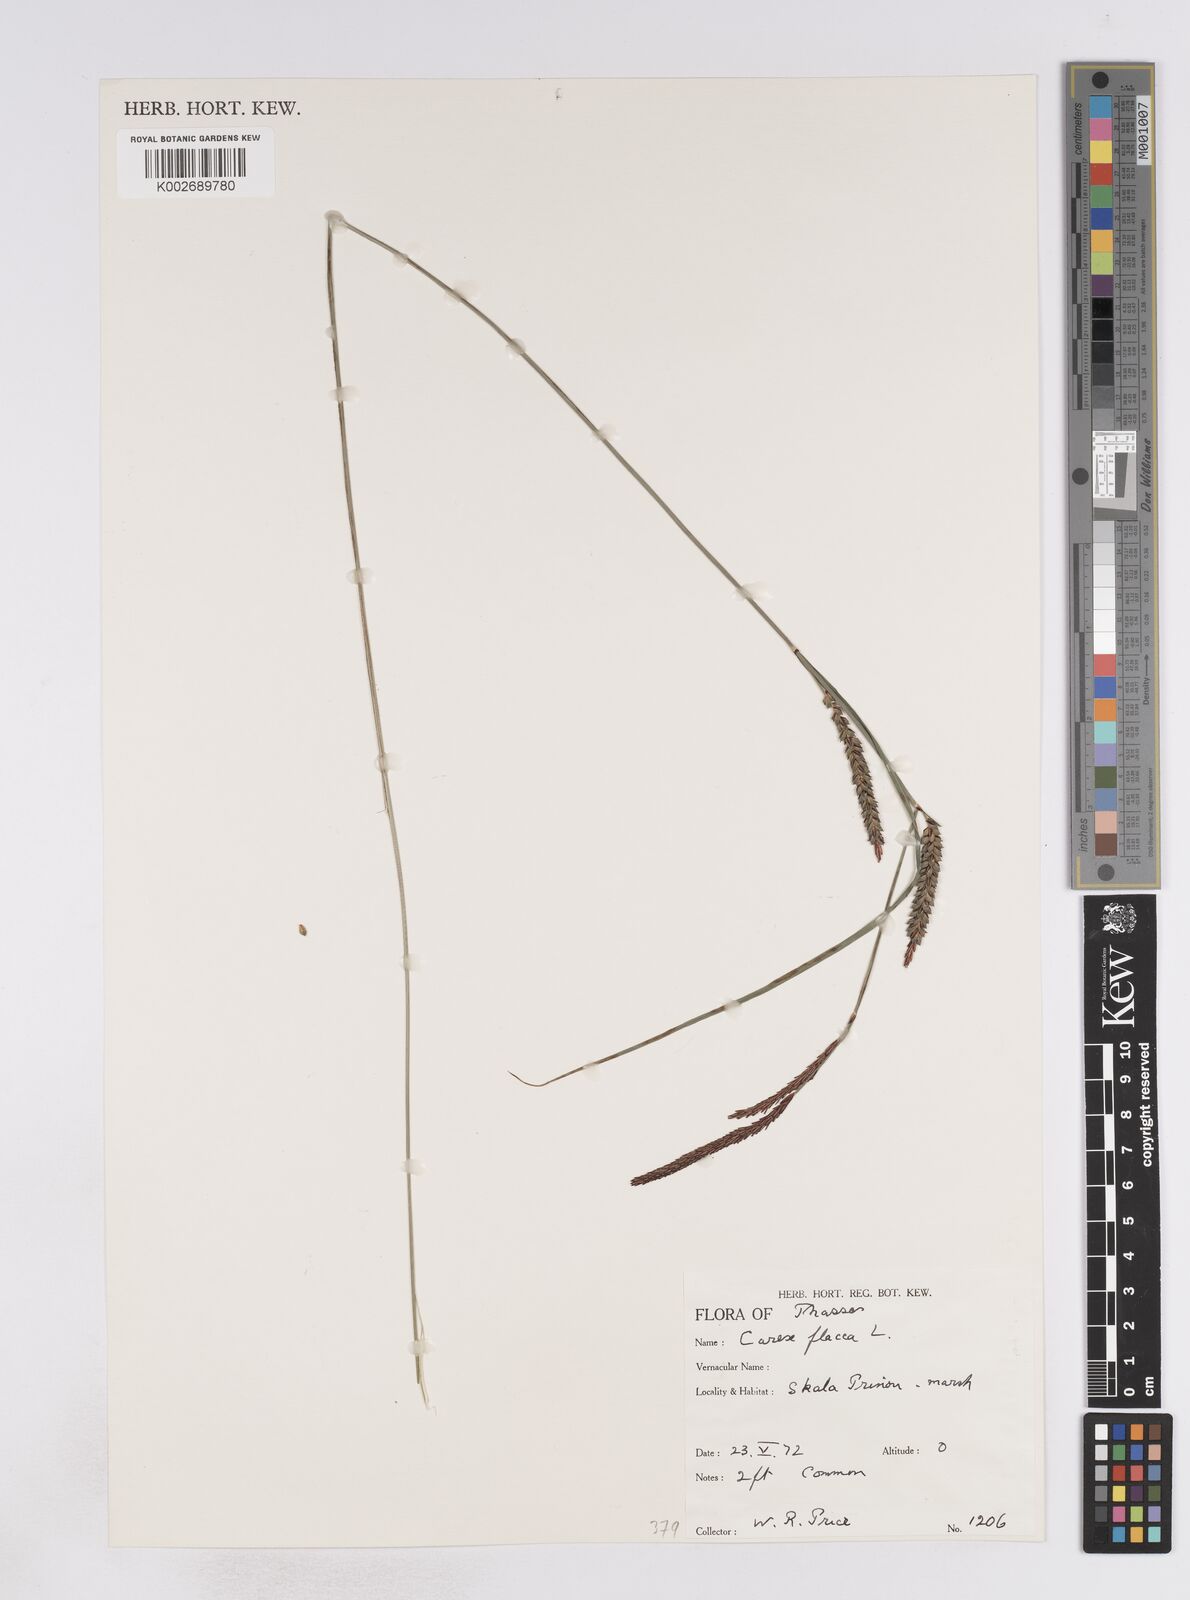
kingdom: Plantae
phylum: Tracheophyta
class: Liliopsida
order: Poales
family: Cyperaceae
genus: Carex
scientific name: Carex flacca
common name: Glaucous sedge
